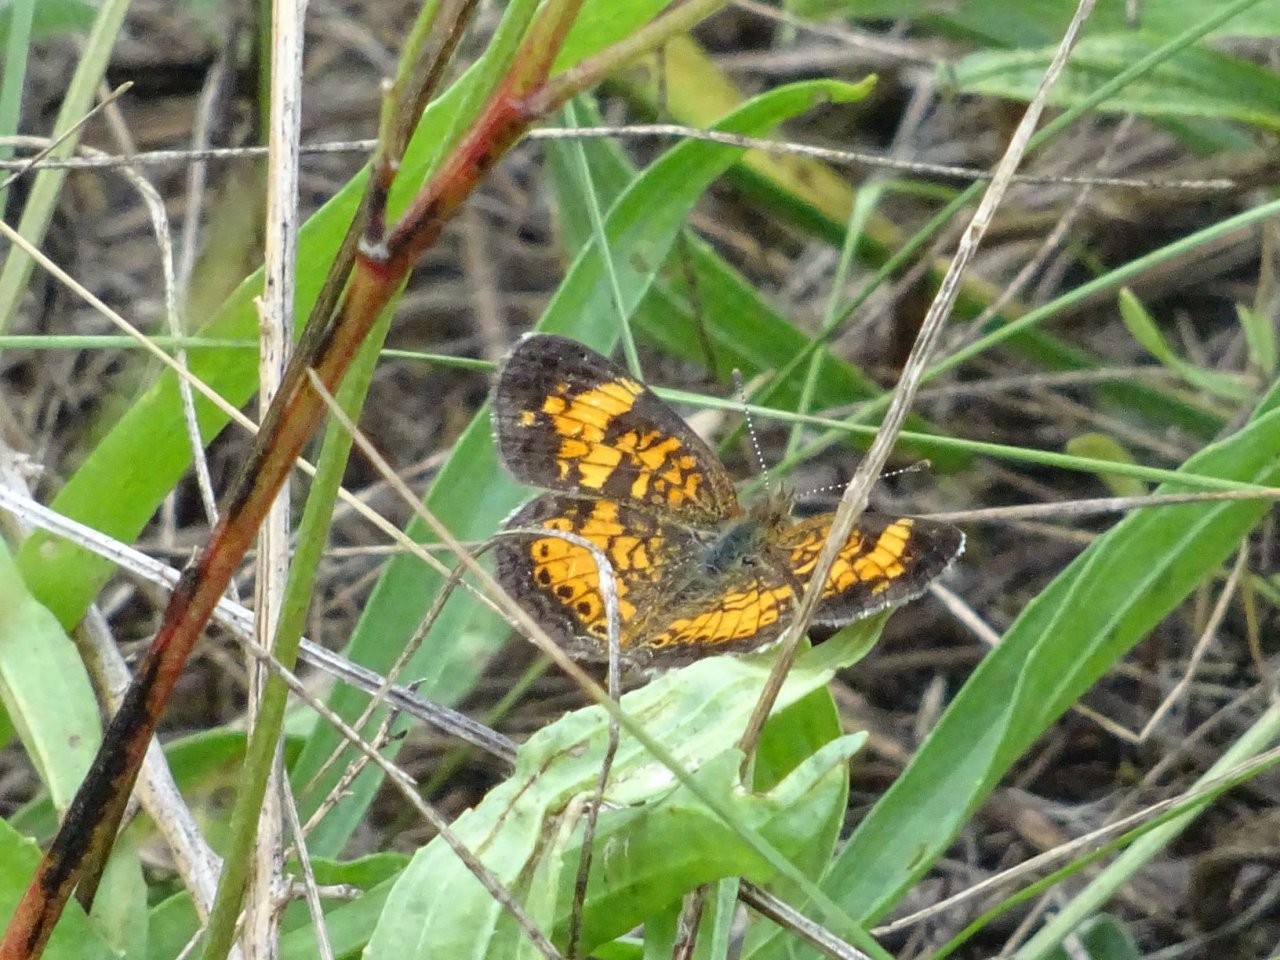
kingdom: Animalia
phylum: Arthropoda
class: Insecta
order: Lepidoptera
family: Nymphalidae
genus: Phyciodes
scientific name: Phyciodes tharos
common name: Pearl Crescent
